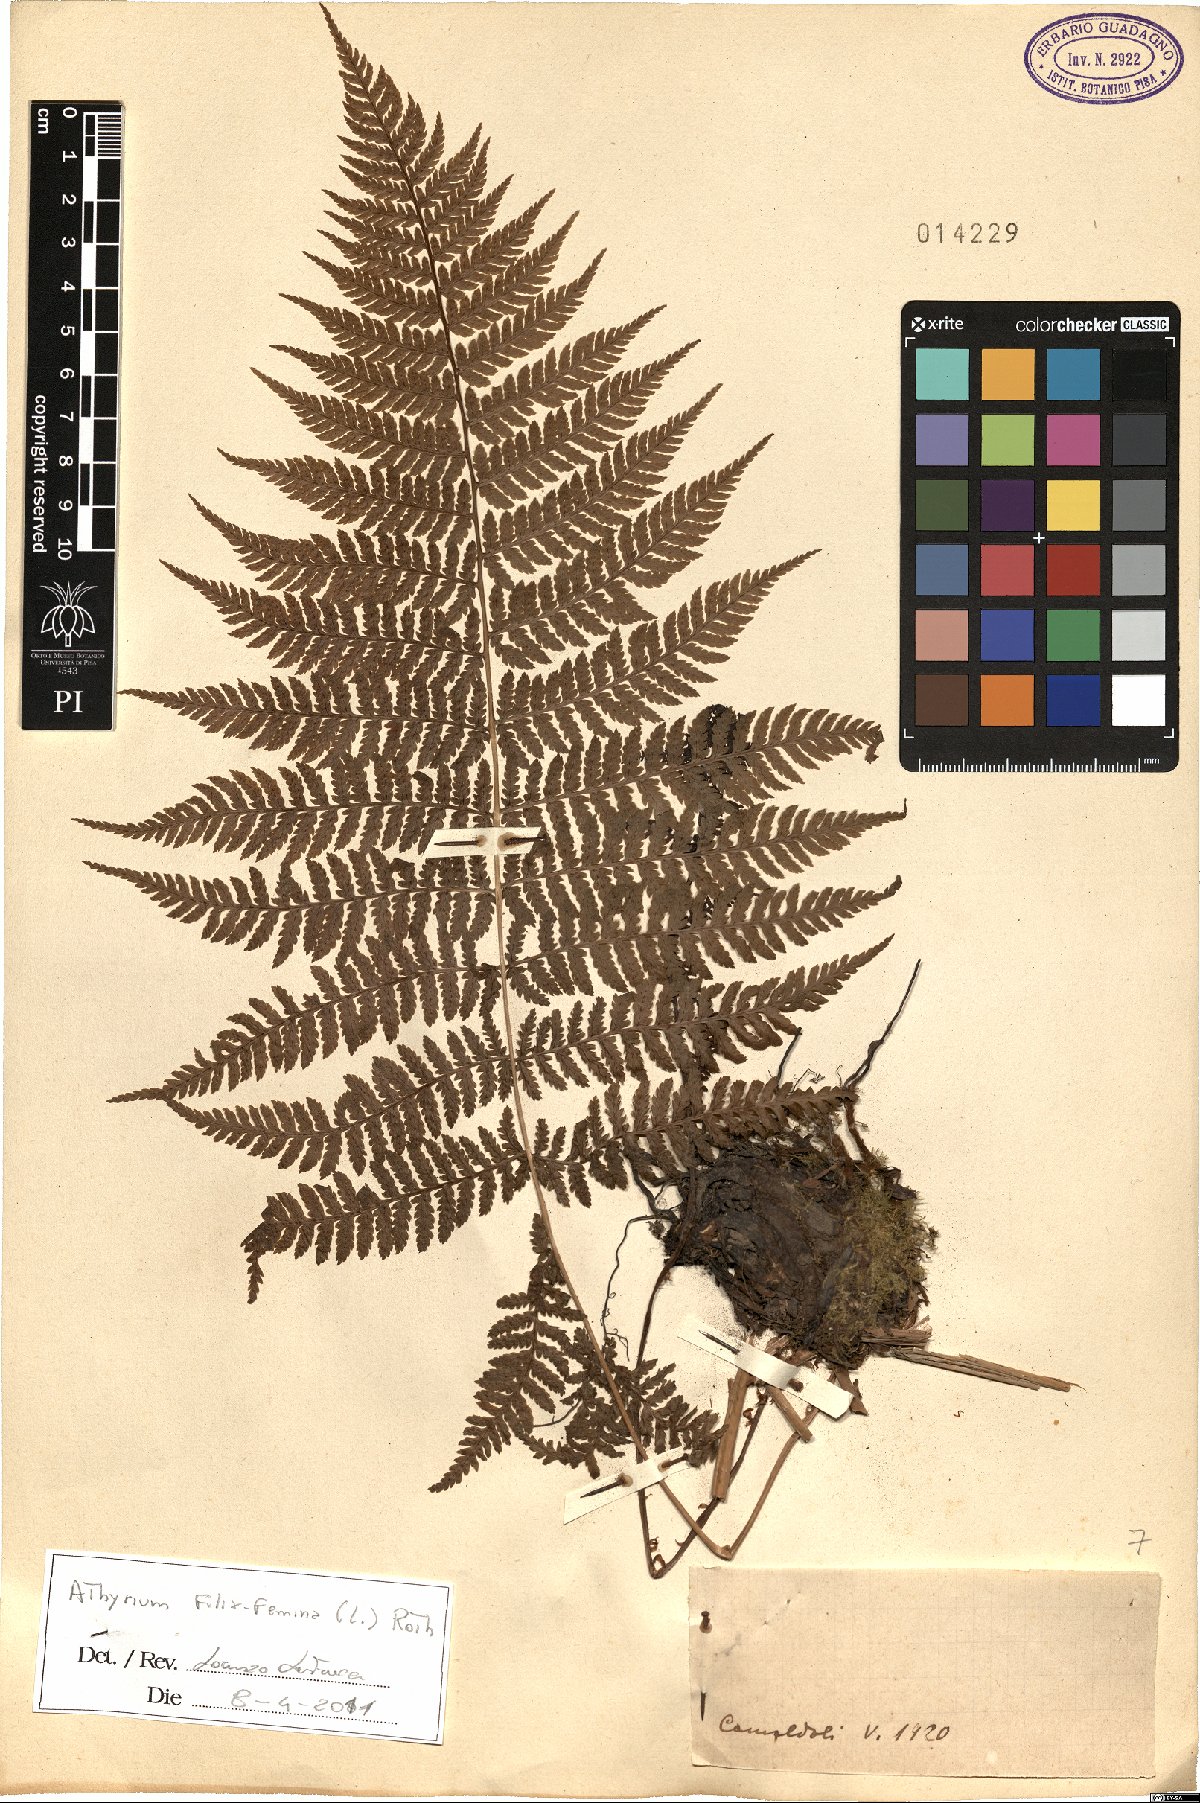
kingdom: Plantae
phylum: Tracheophyta
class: Polypodiopsida
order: Polypodiales
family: Athyriaceae
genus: Athyrium
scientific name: Athyrium filix-femina
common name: Lady fern
